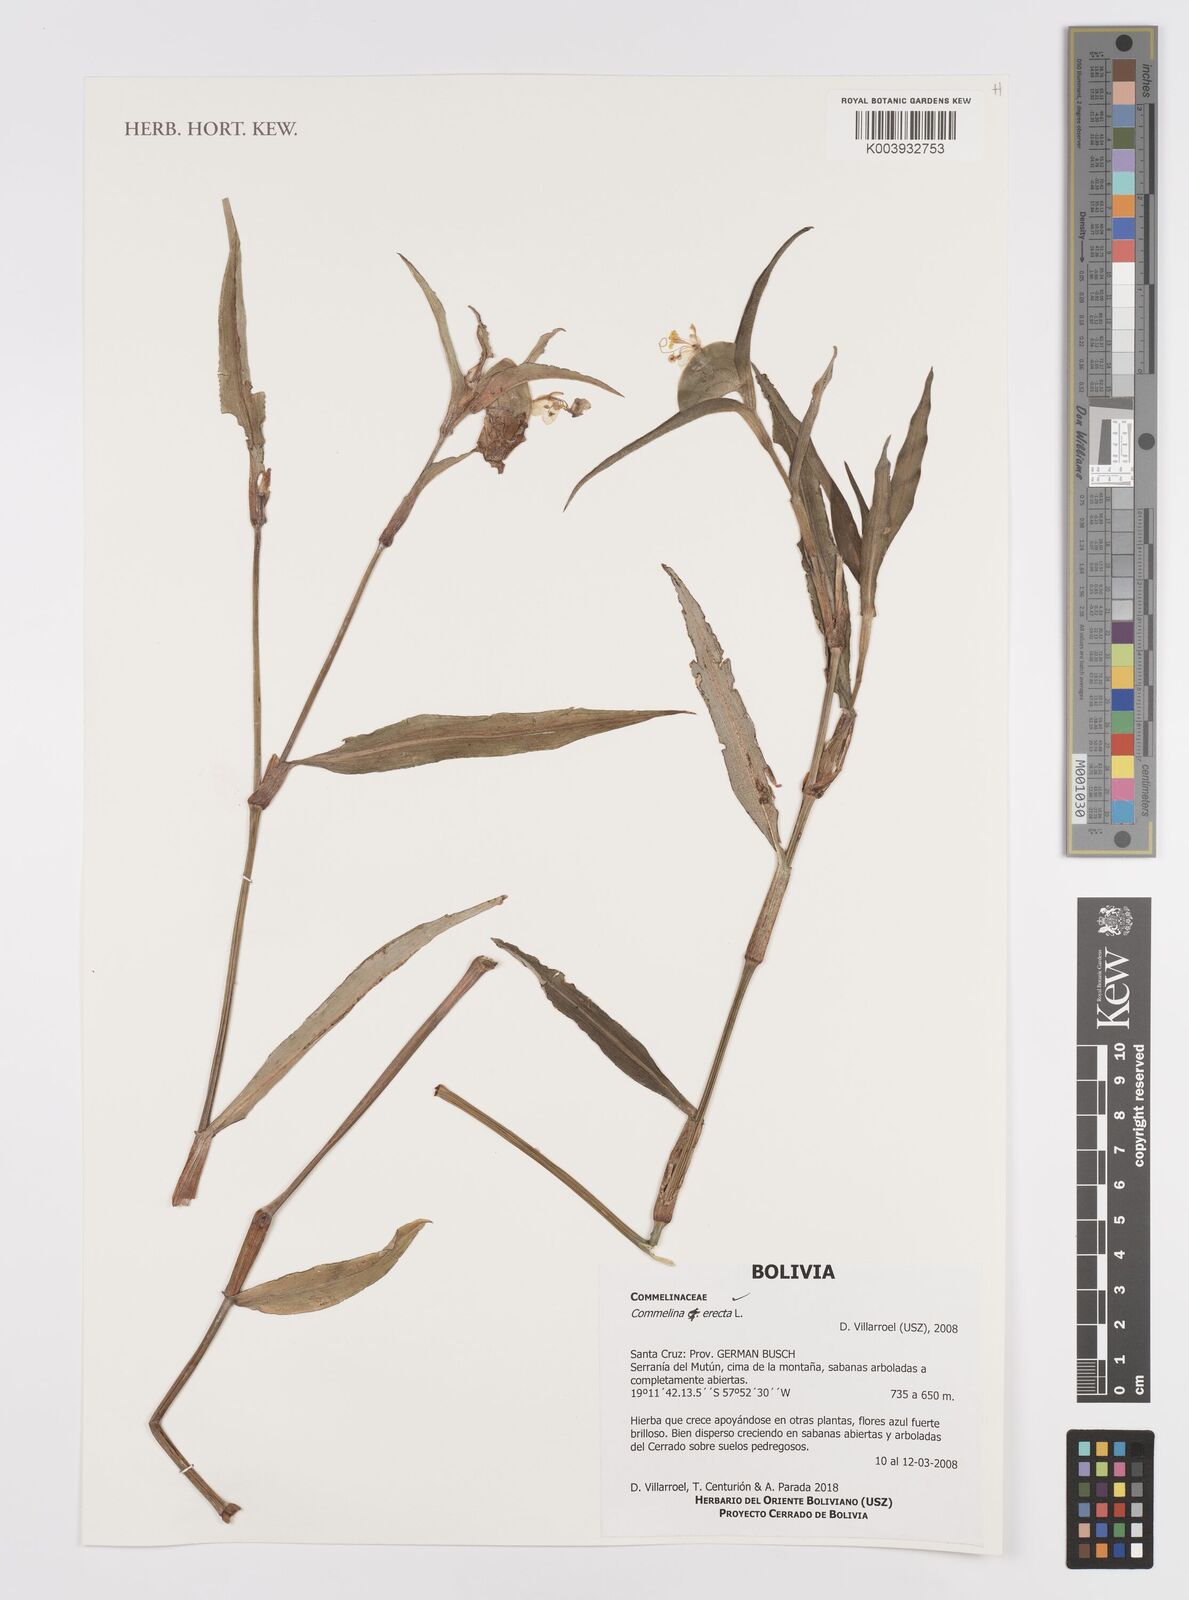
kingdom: Plantae
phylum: Tracheophyta
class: Liliopsida
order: Commelinales
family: Commelinaceae
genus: Commelina
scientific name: Commelina erecta
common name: Blousel blommetjie
